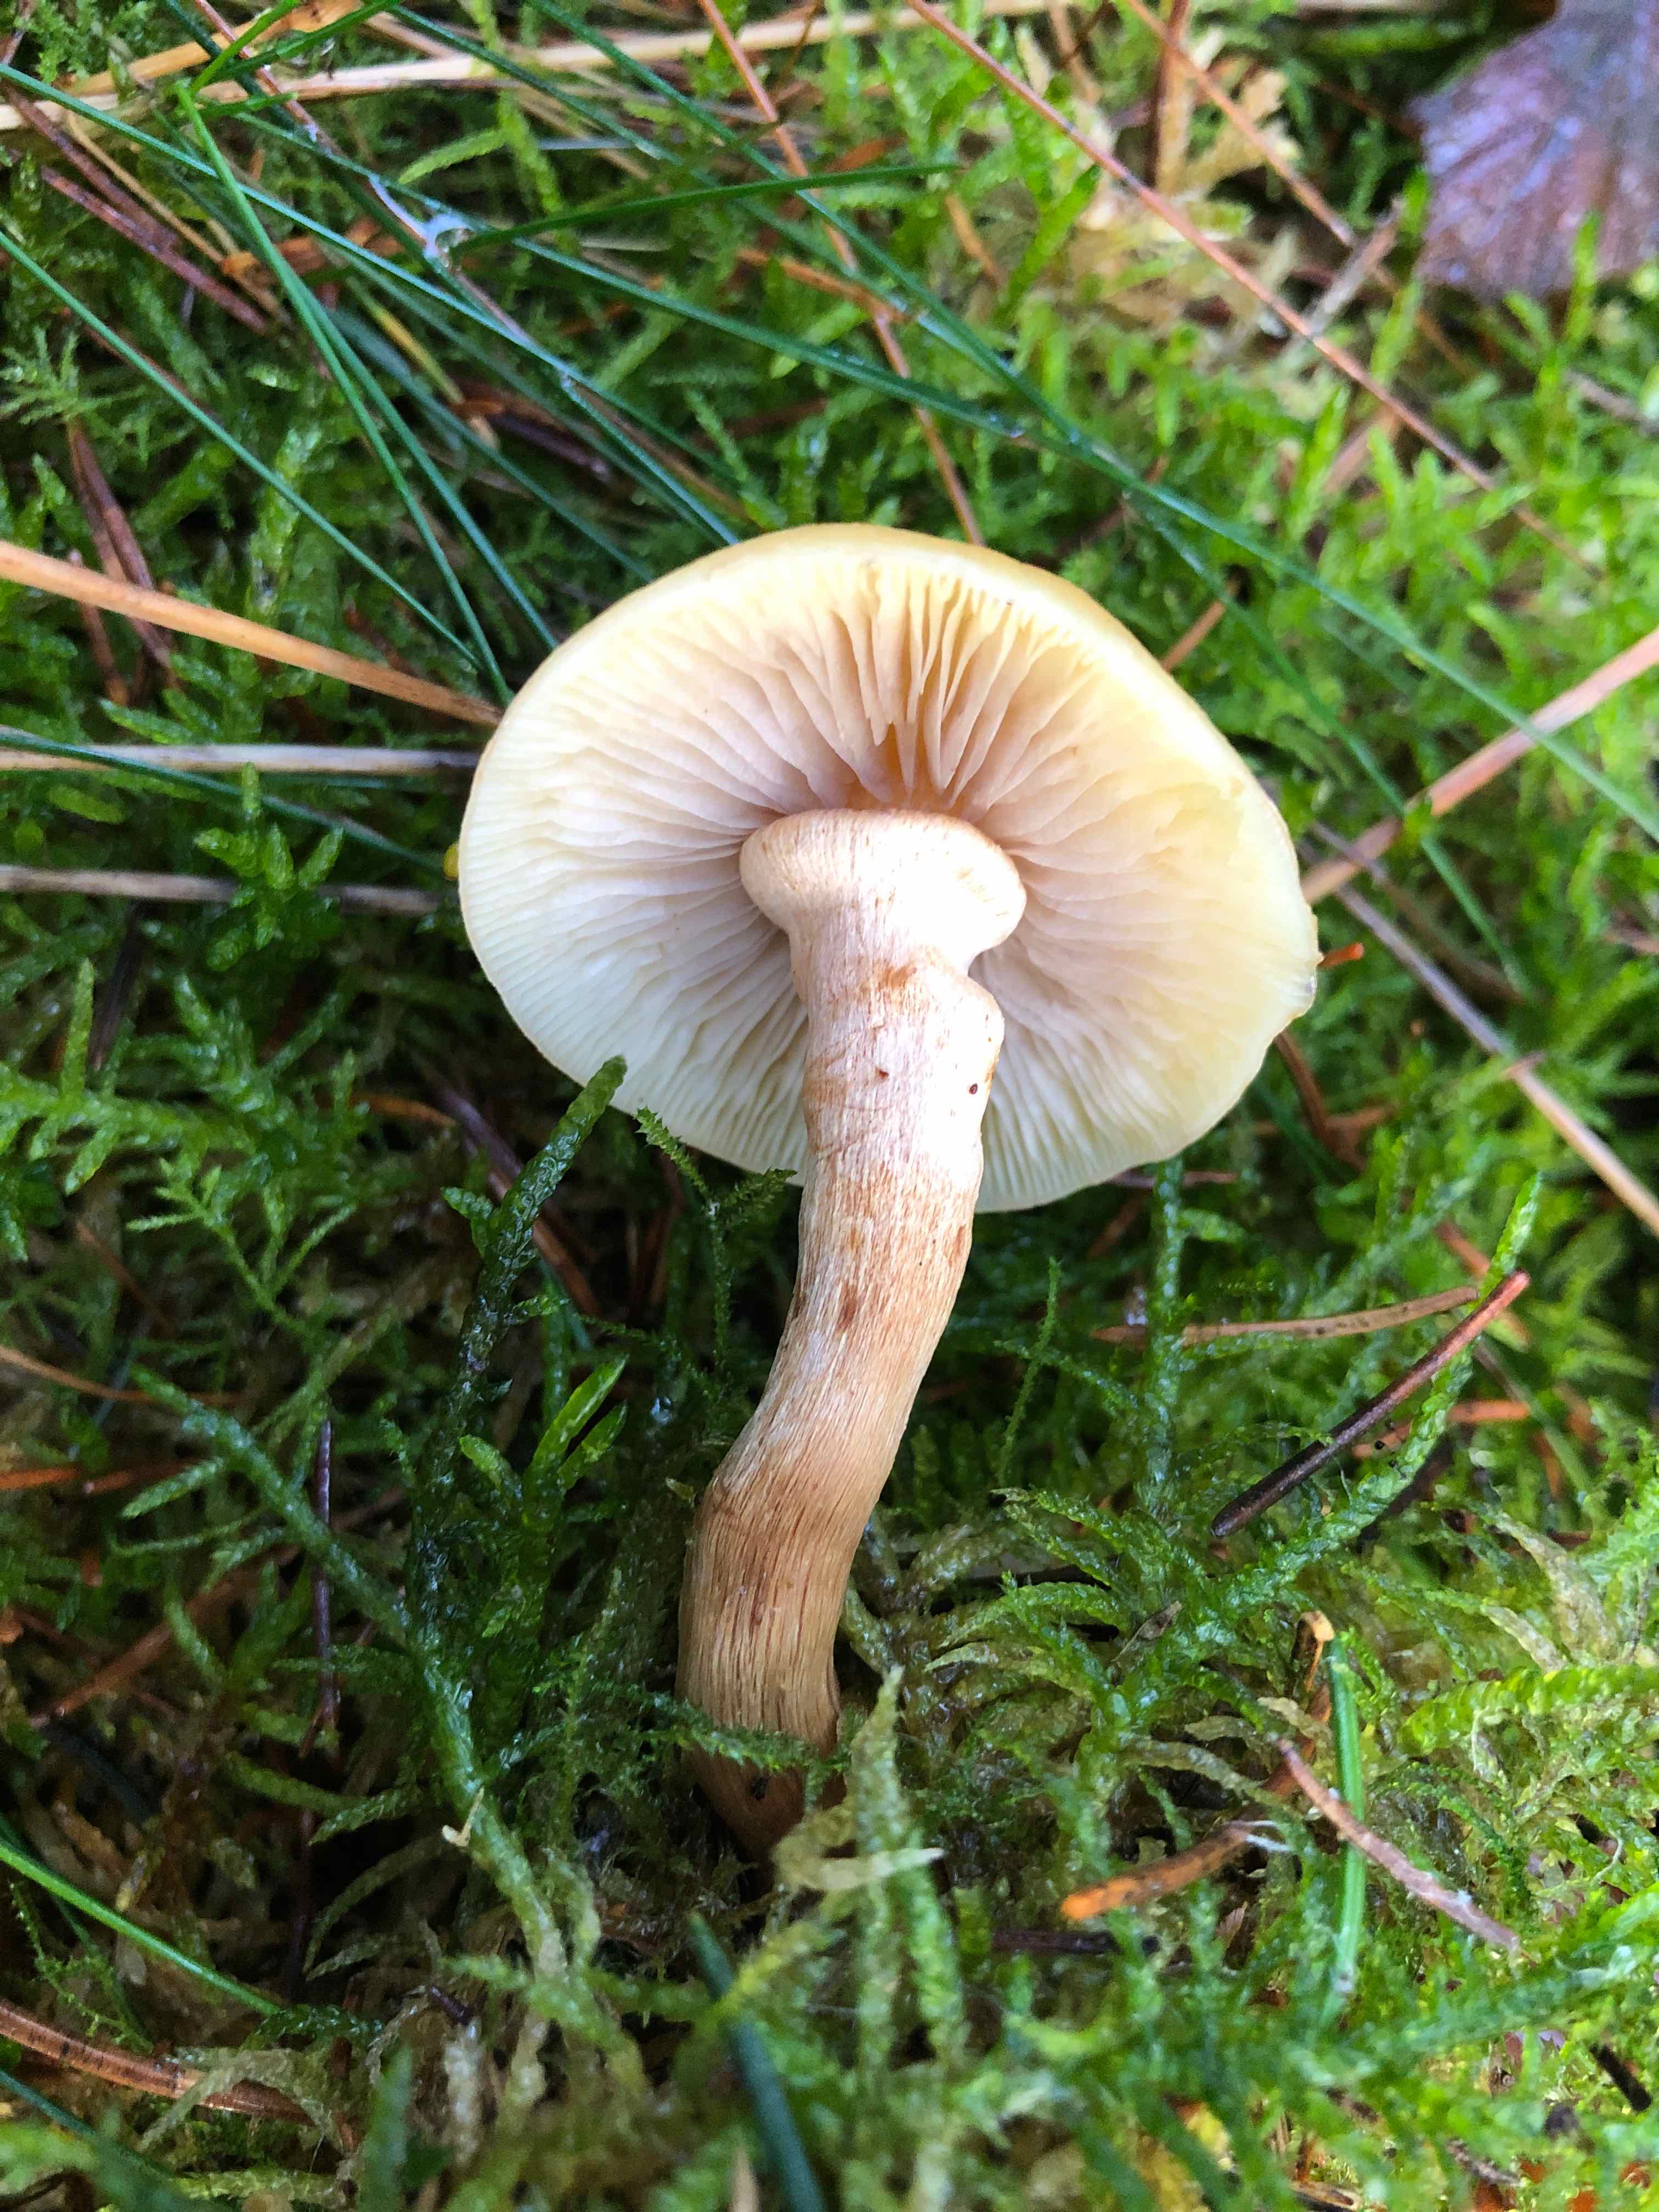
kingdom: Fungi
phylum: Basidiomycota
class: Agaricomycetes
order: Agaricales
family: Strophariaceae
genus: Kuehneromyces
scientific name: Kuehneromyces mutabilis
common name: foranderlig skælhat
